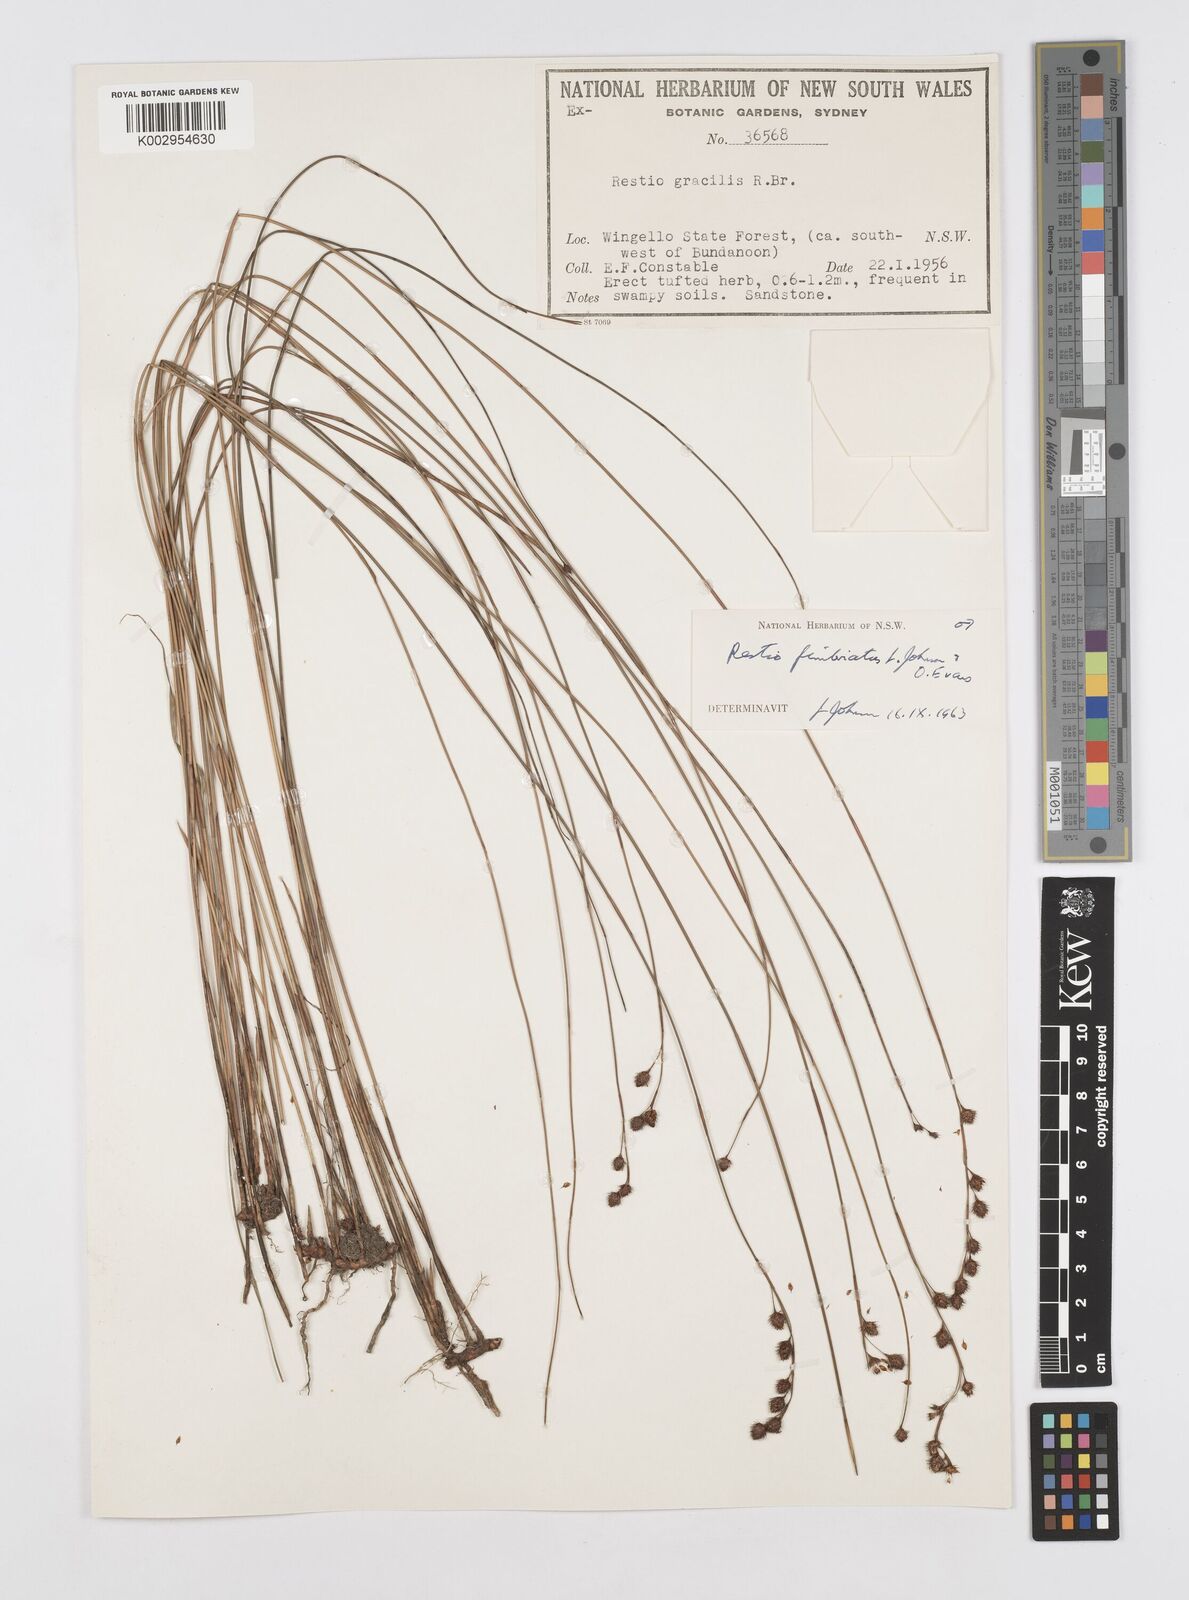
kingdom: Plantae
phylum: Tracheophyta
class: Liliopsida
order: Poales
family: Restionaceae
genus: Baloskion
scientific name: Baloskion fimbriatum
